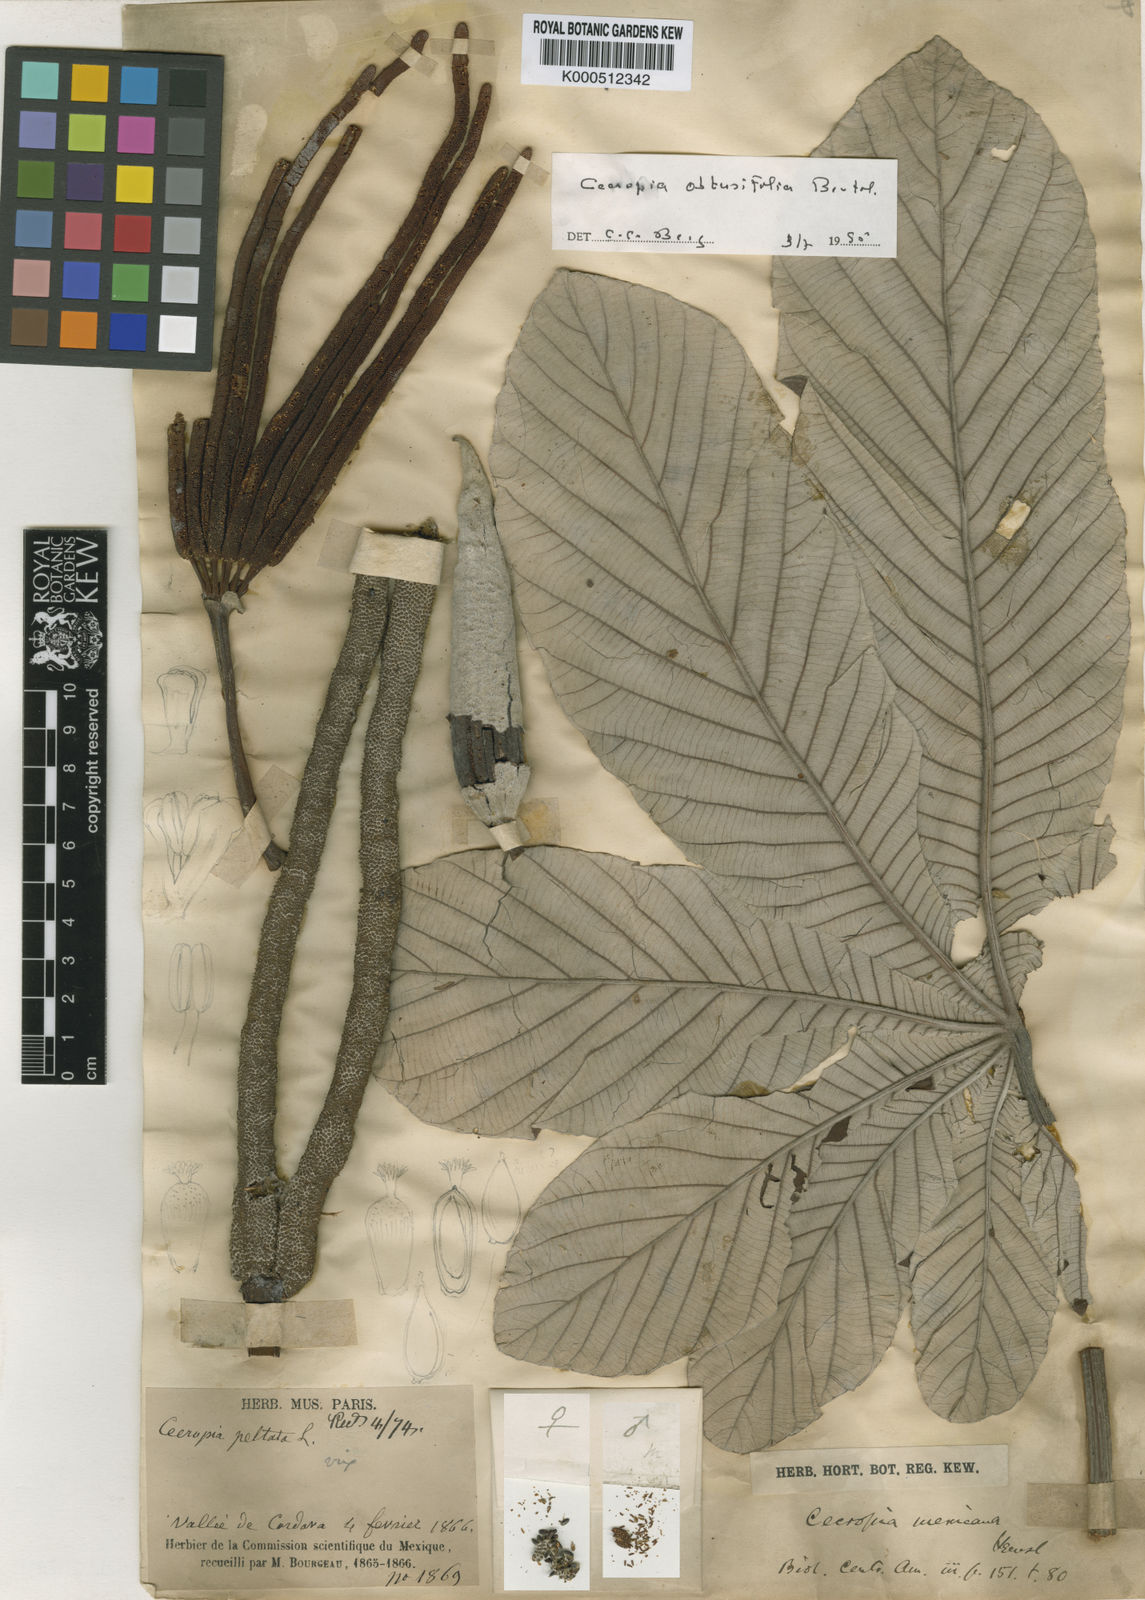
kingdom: Plantae
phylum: Tracheophyta
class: Magnoliopsida
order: Rosales
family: Urticaceae
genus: Cecropia
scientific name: Cecropia obtusifolia
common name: Trumpet tree
